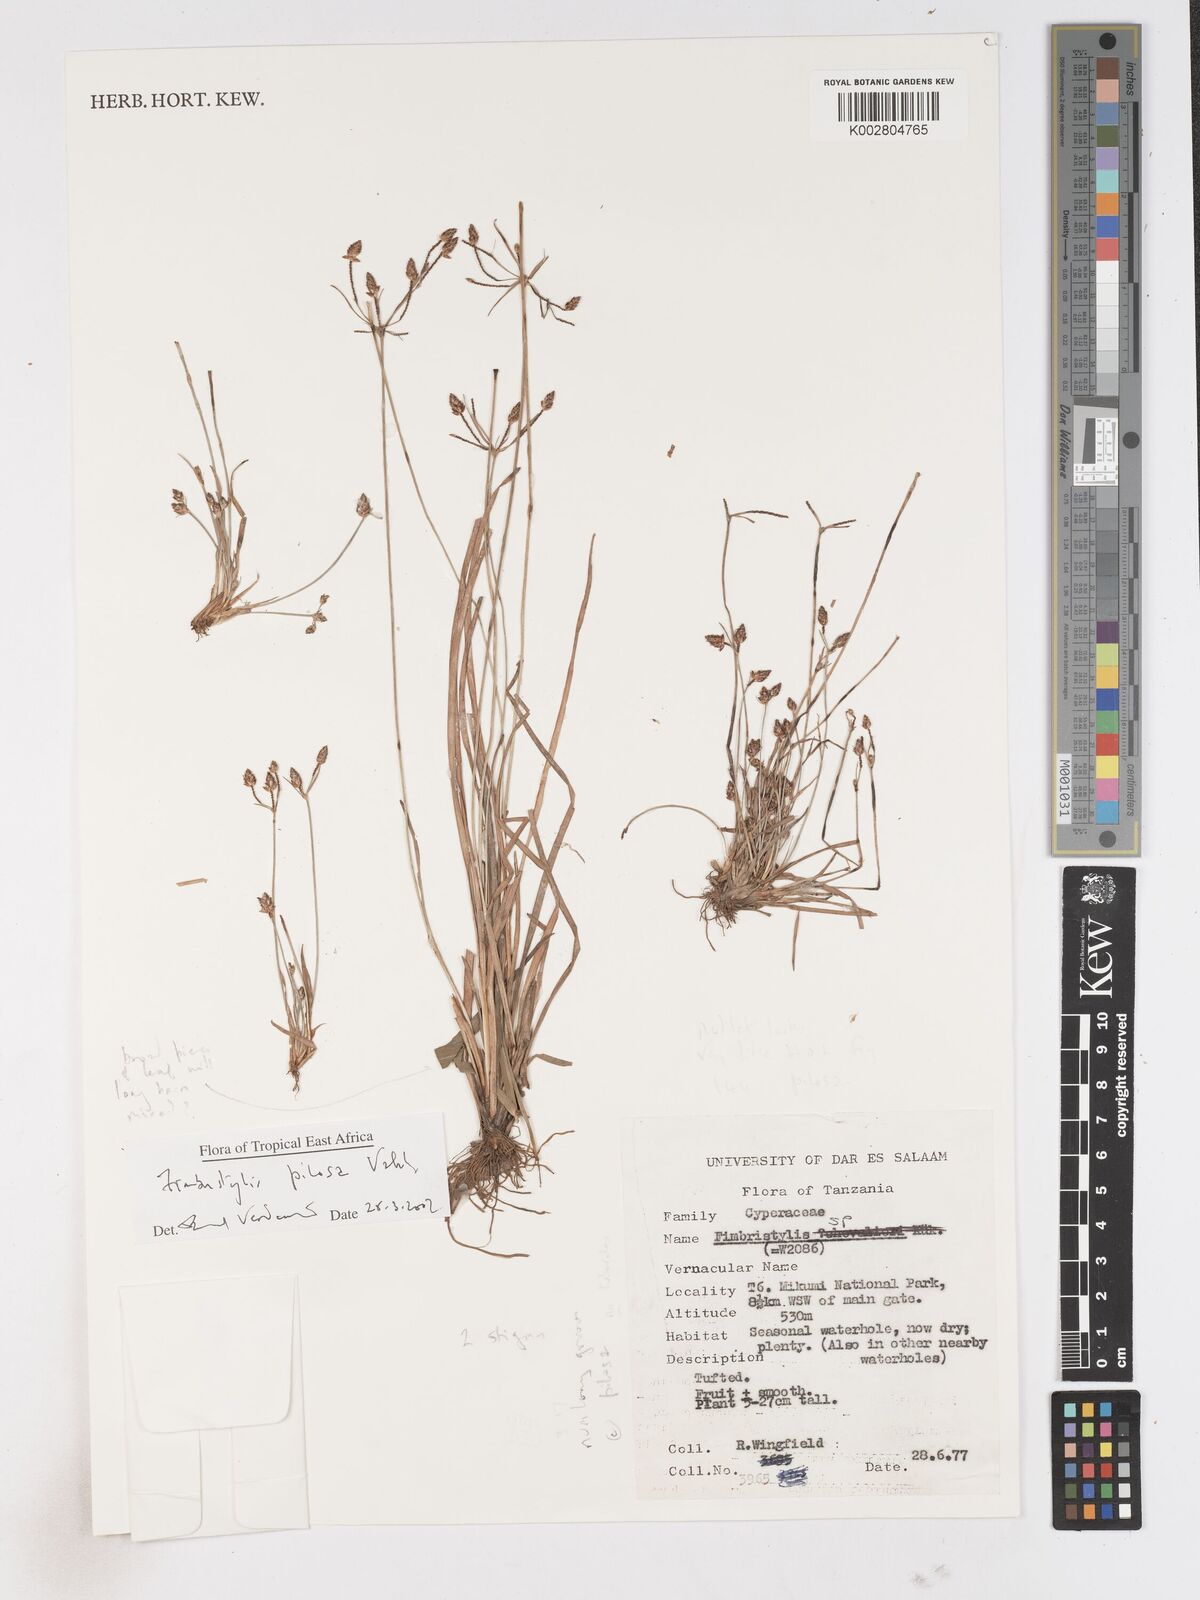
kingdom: Plantae
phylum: Tracheophyta
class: Liliopsida
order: Poales
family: Cyperaceae
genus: Fimbristylis
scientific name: Fimbristylis pilosa
